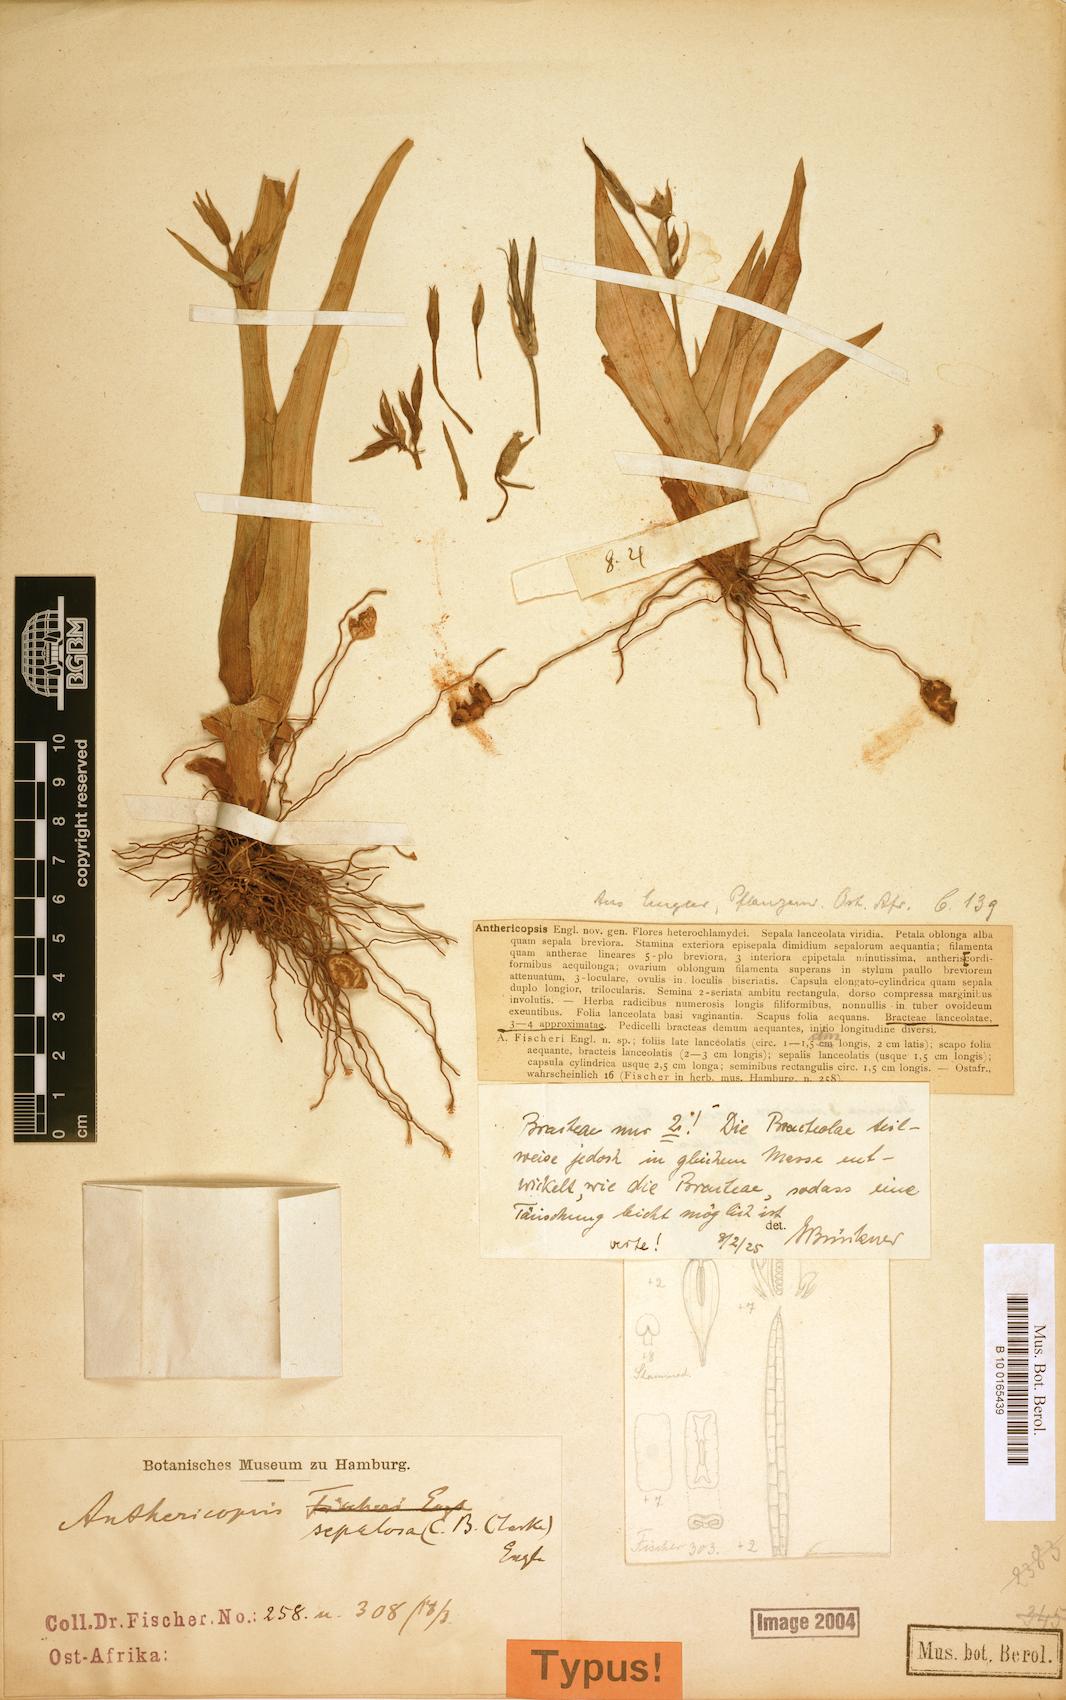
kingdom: Plantae
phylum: Tracheophyta
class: Liliopsida
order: Commelinales
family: Commelinaceae
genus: Anthericopsis
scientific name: Anthericopsis sepalosa
